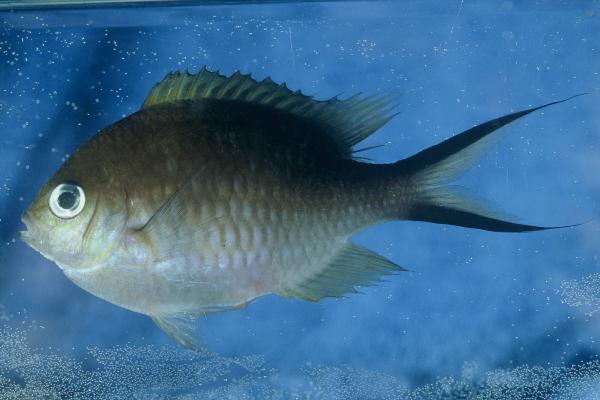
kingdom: Animalia
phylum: Chordata
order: Perciformes
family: Pomacentridae
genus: Chromis
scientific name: Chromis ternatensis
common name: Ternate chromis
